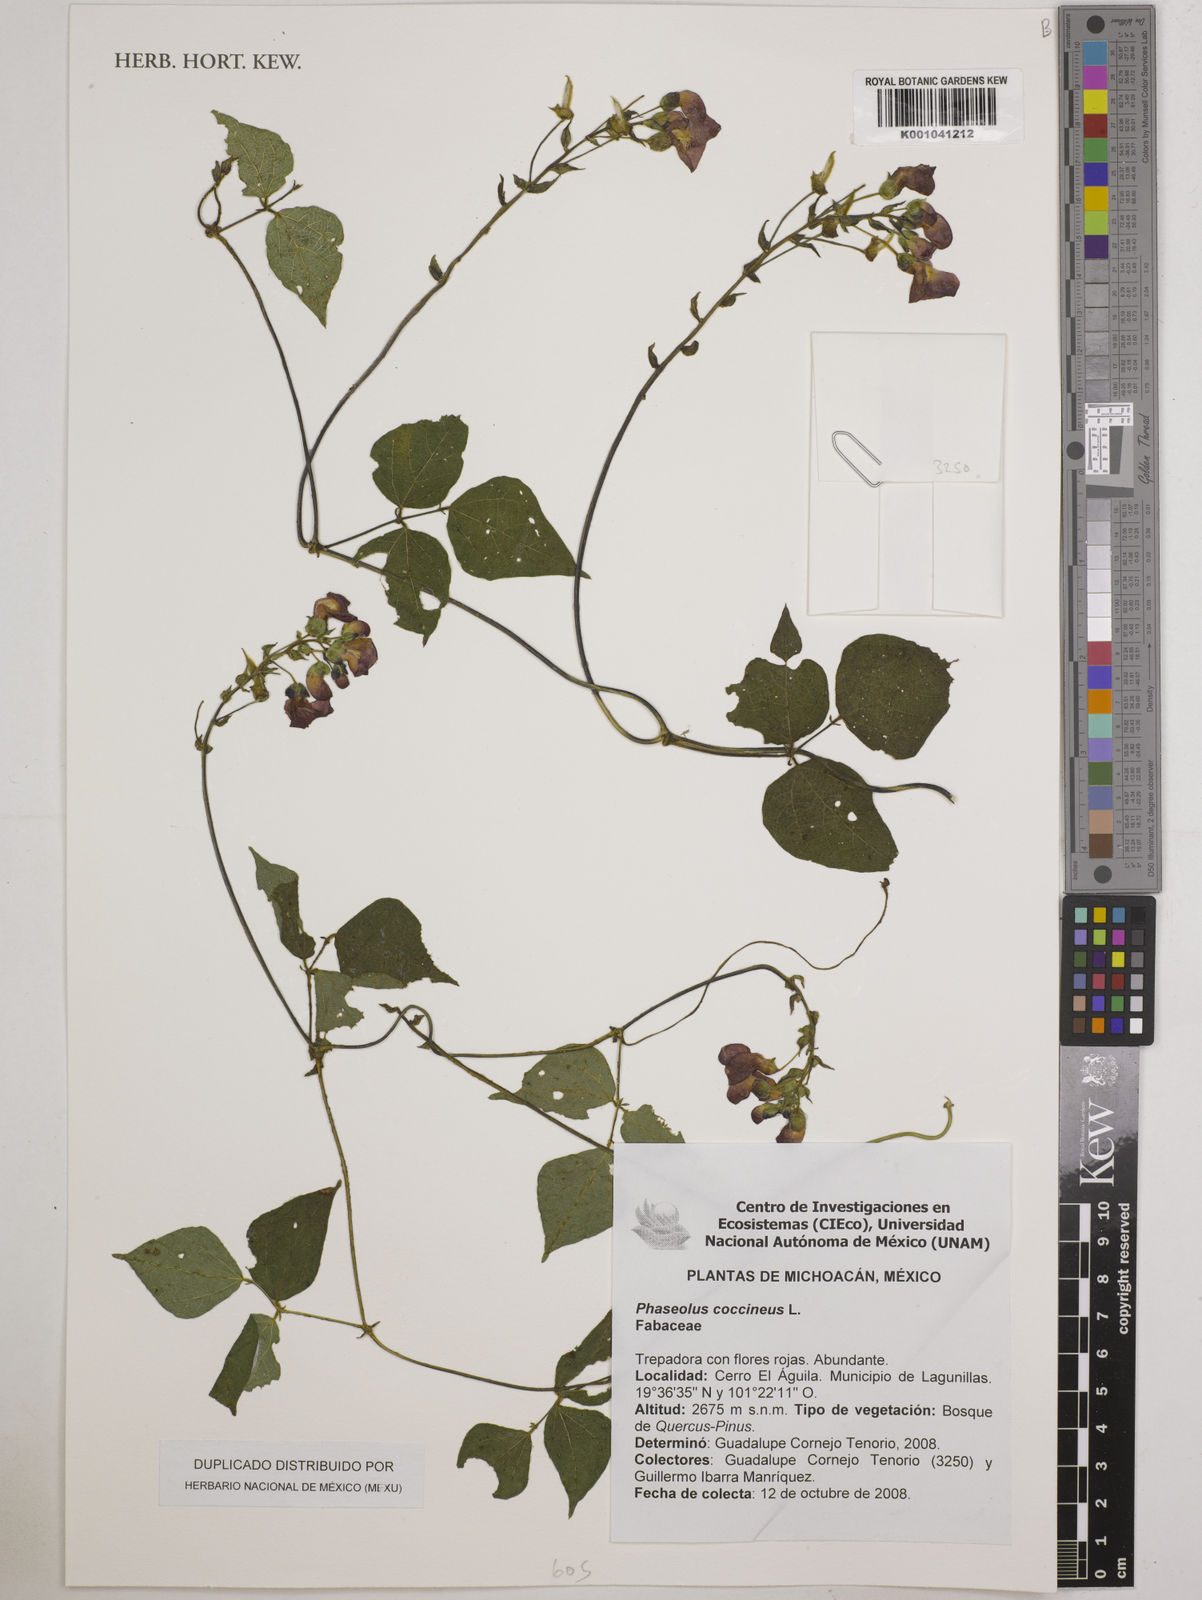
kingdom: Plantae
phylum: Tracheophyta
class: Magnoliopsida
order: Fabales
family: Fabaceae
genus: Phaseolus
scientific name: Phaseolus coccineus
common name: Runner bean
